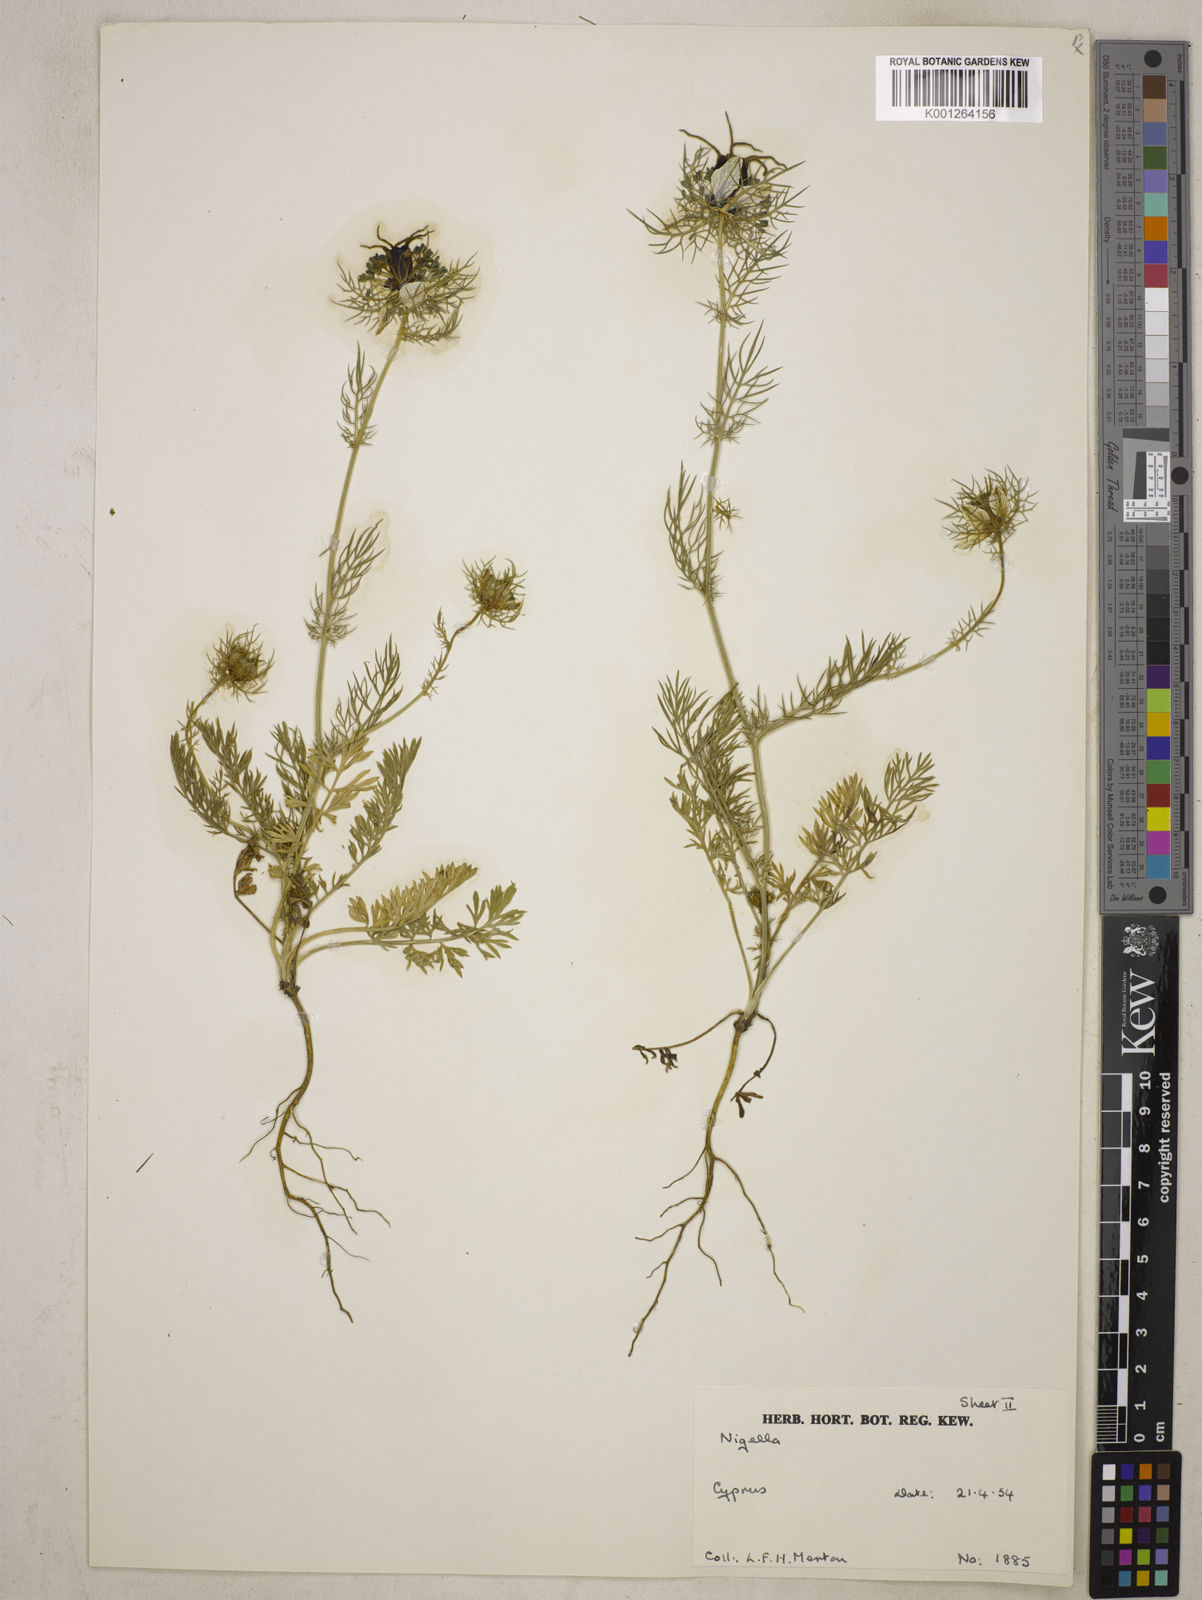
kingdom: Plantae
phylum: Tracheophyta
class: Magnoliopsida
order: Ranunculales
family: Ranunculaceae
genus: Nigella
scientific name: Nigella damascena
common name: Love-in-a-mist
